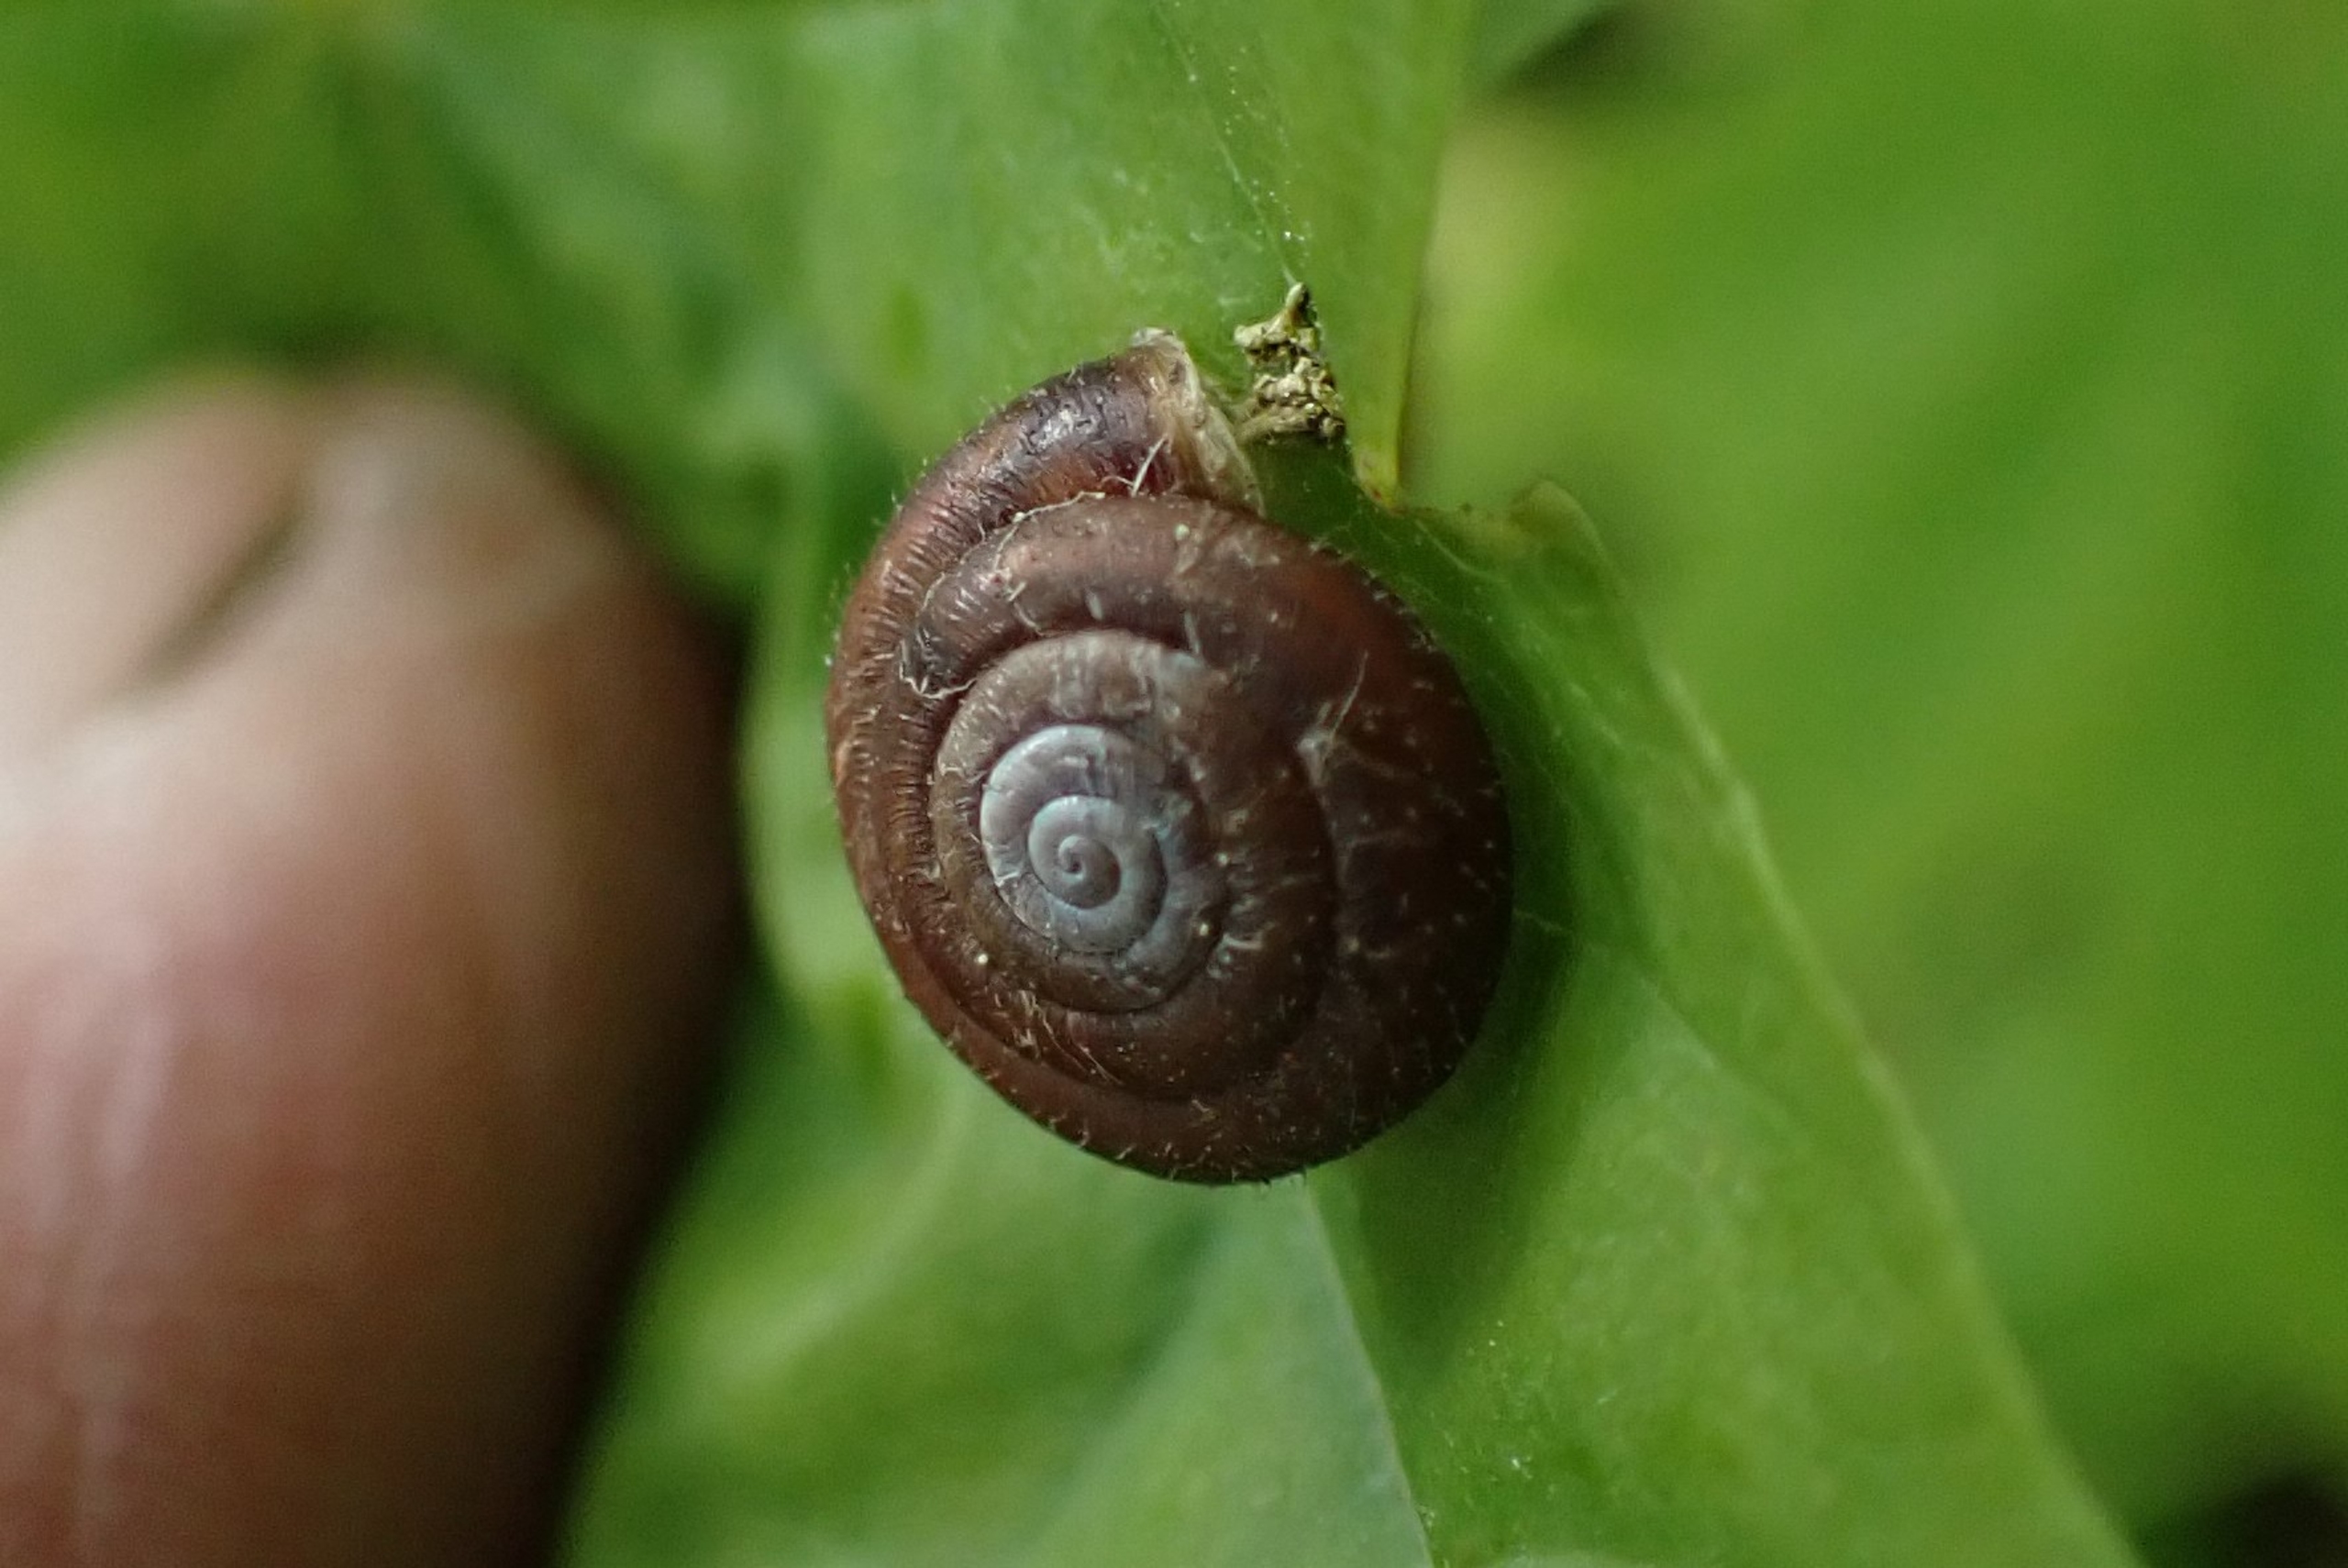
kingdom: Animalia
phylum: Mollusca
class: Gastropoda
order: Stylommatophora
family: Hygromiidae
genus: Trochulus
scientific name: Trochulus hispidus
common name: Håret snegl
